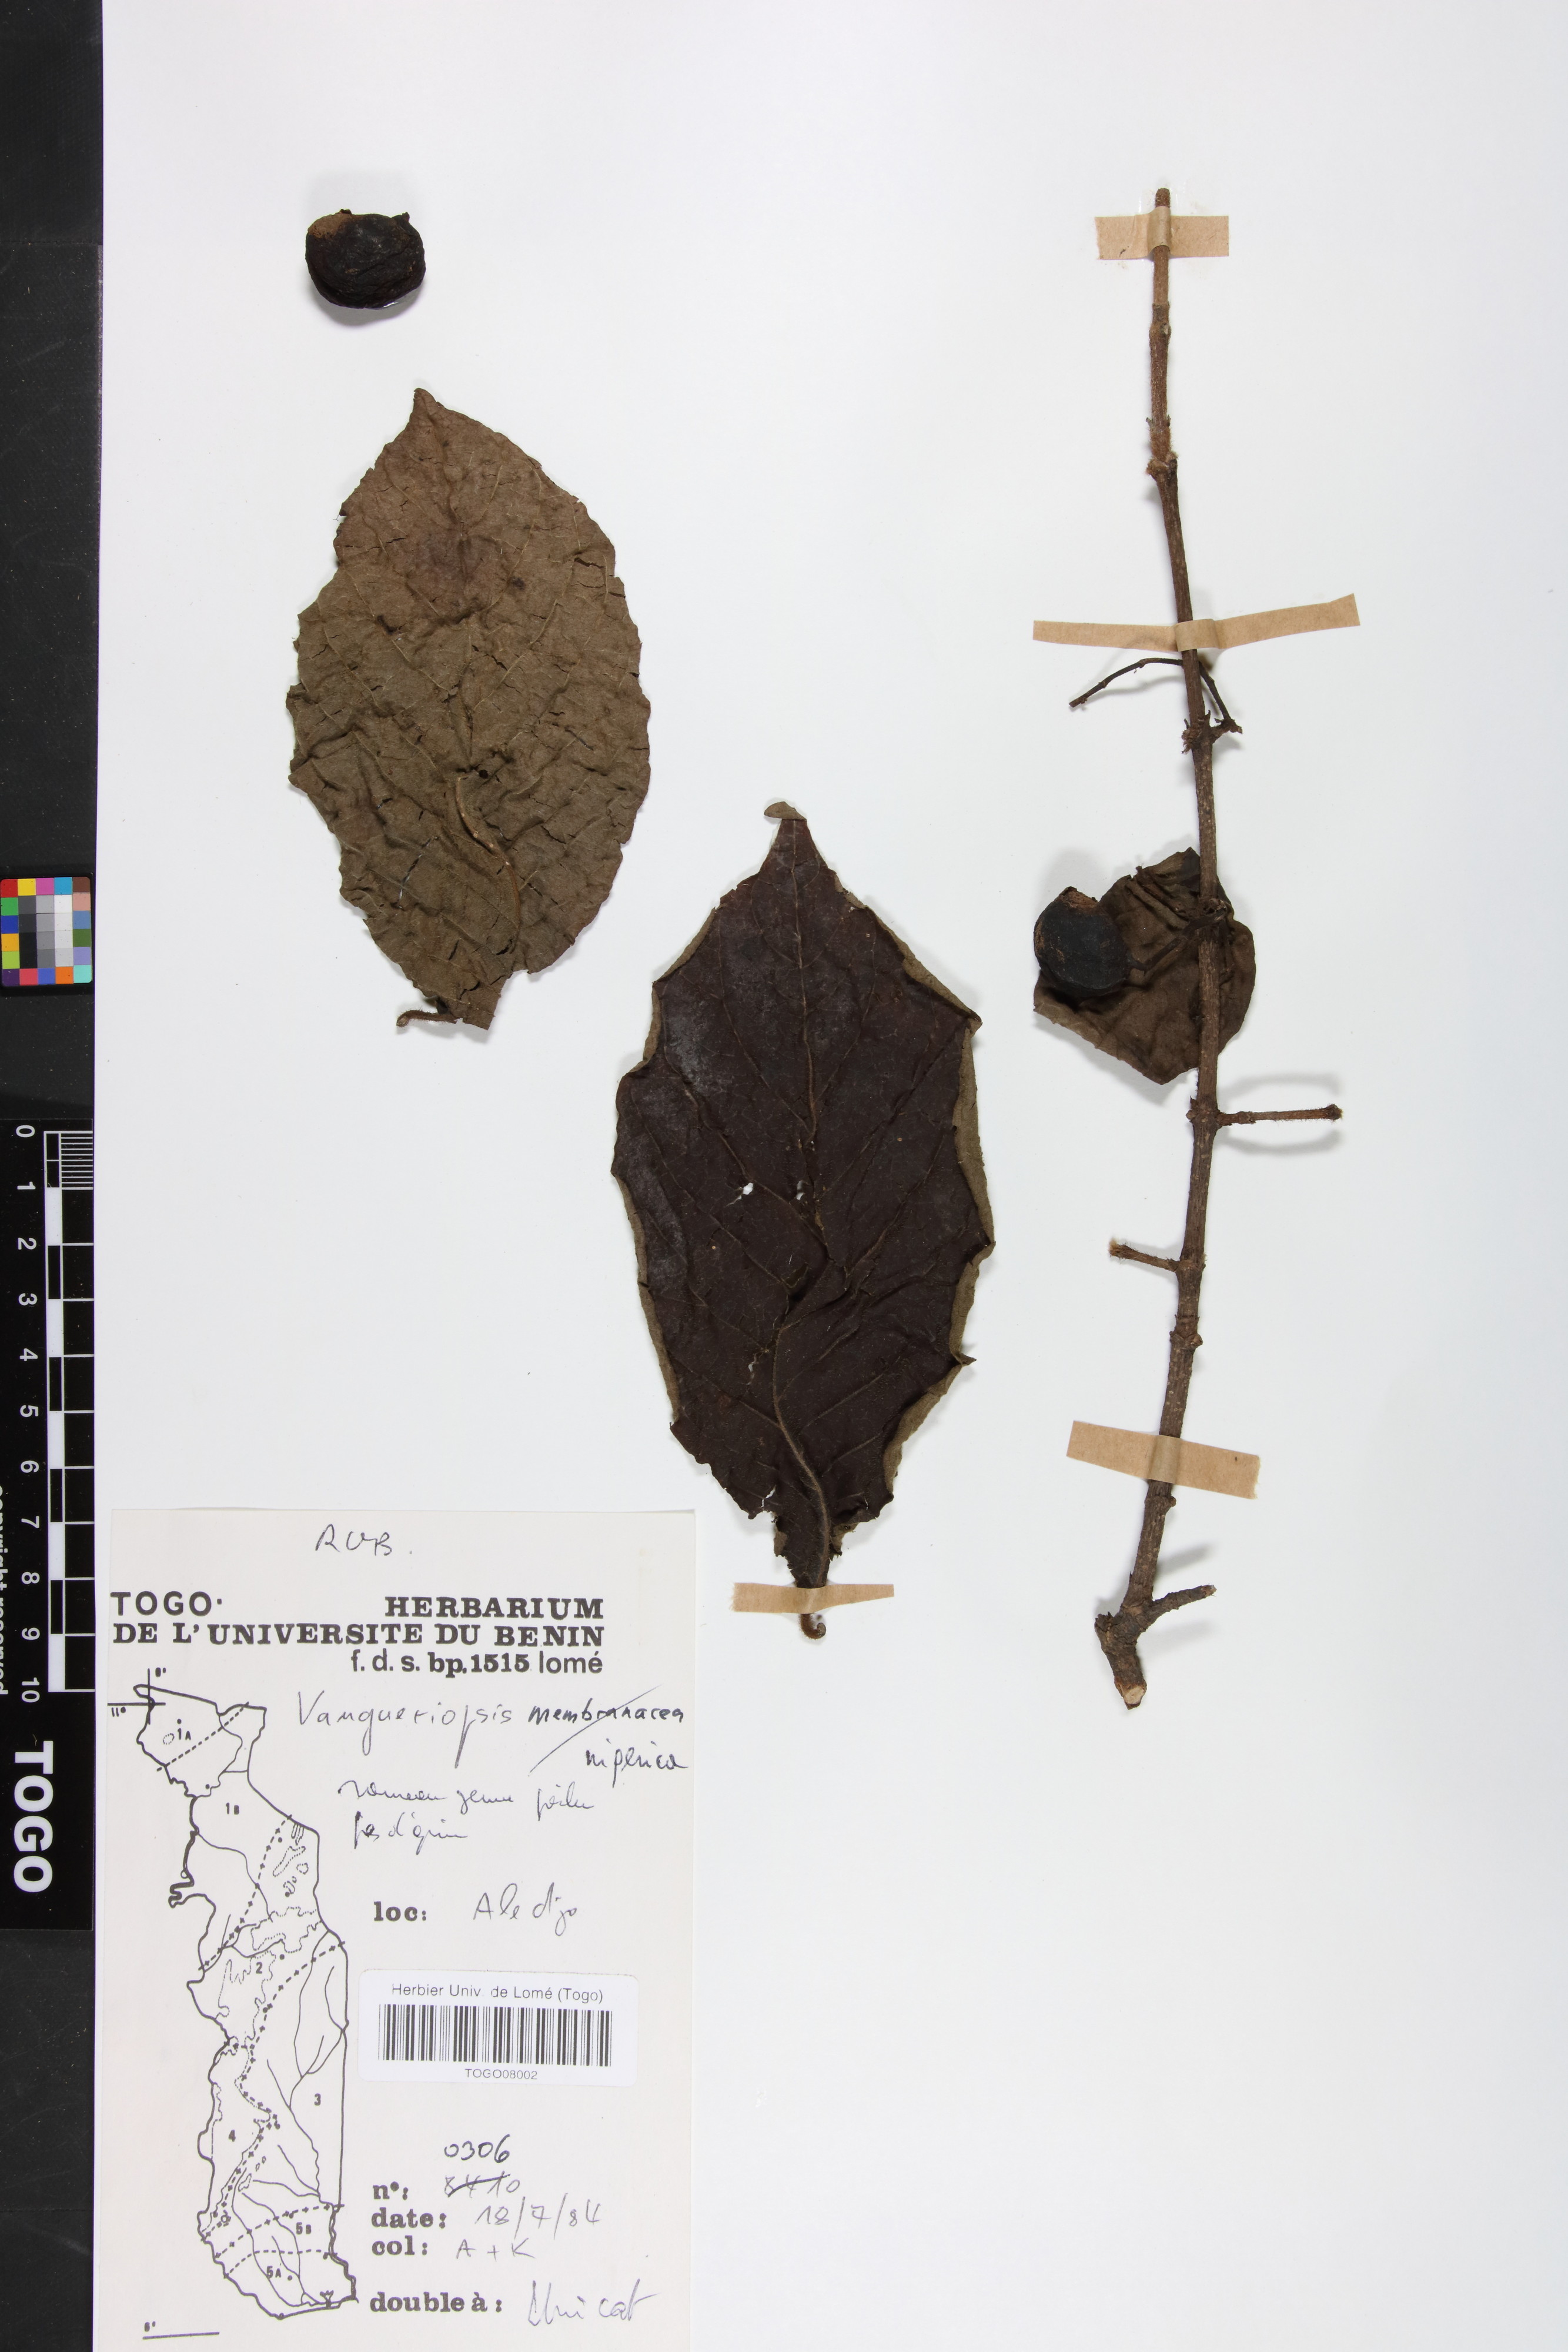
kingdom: Plantae
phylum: Tracheophyta
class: Magnoliopsida
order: Gentianales
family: Rubiaceae
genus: Vangueriella
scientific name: Vangueriella nigerica
